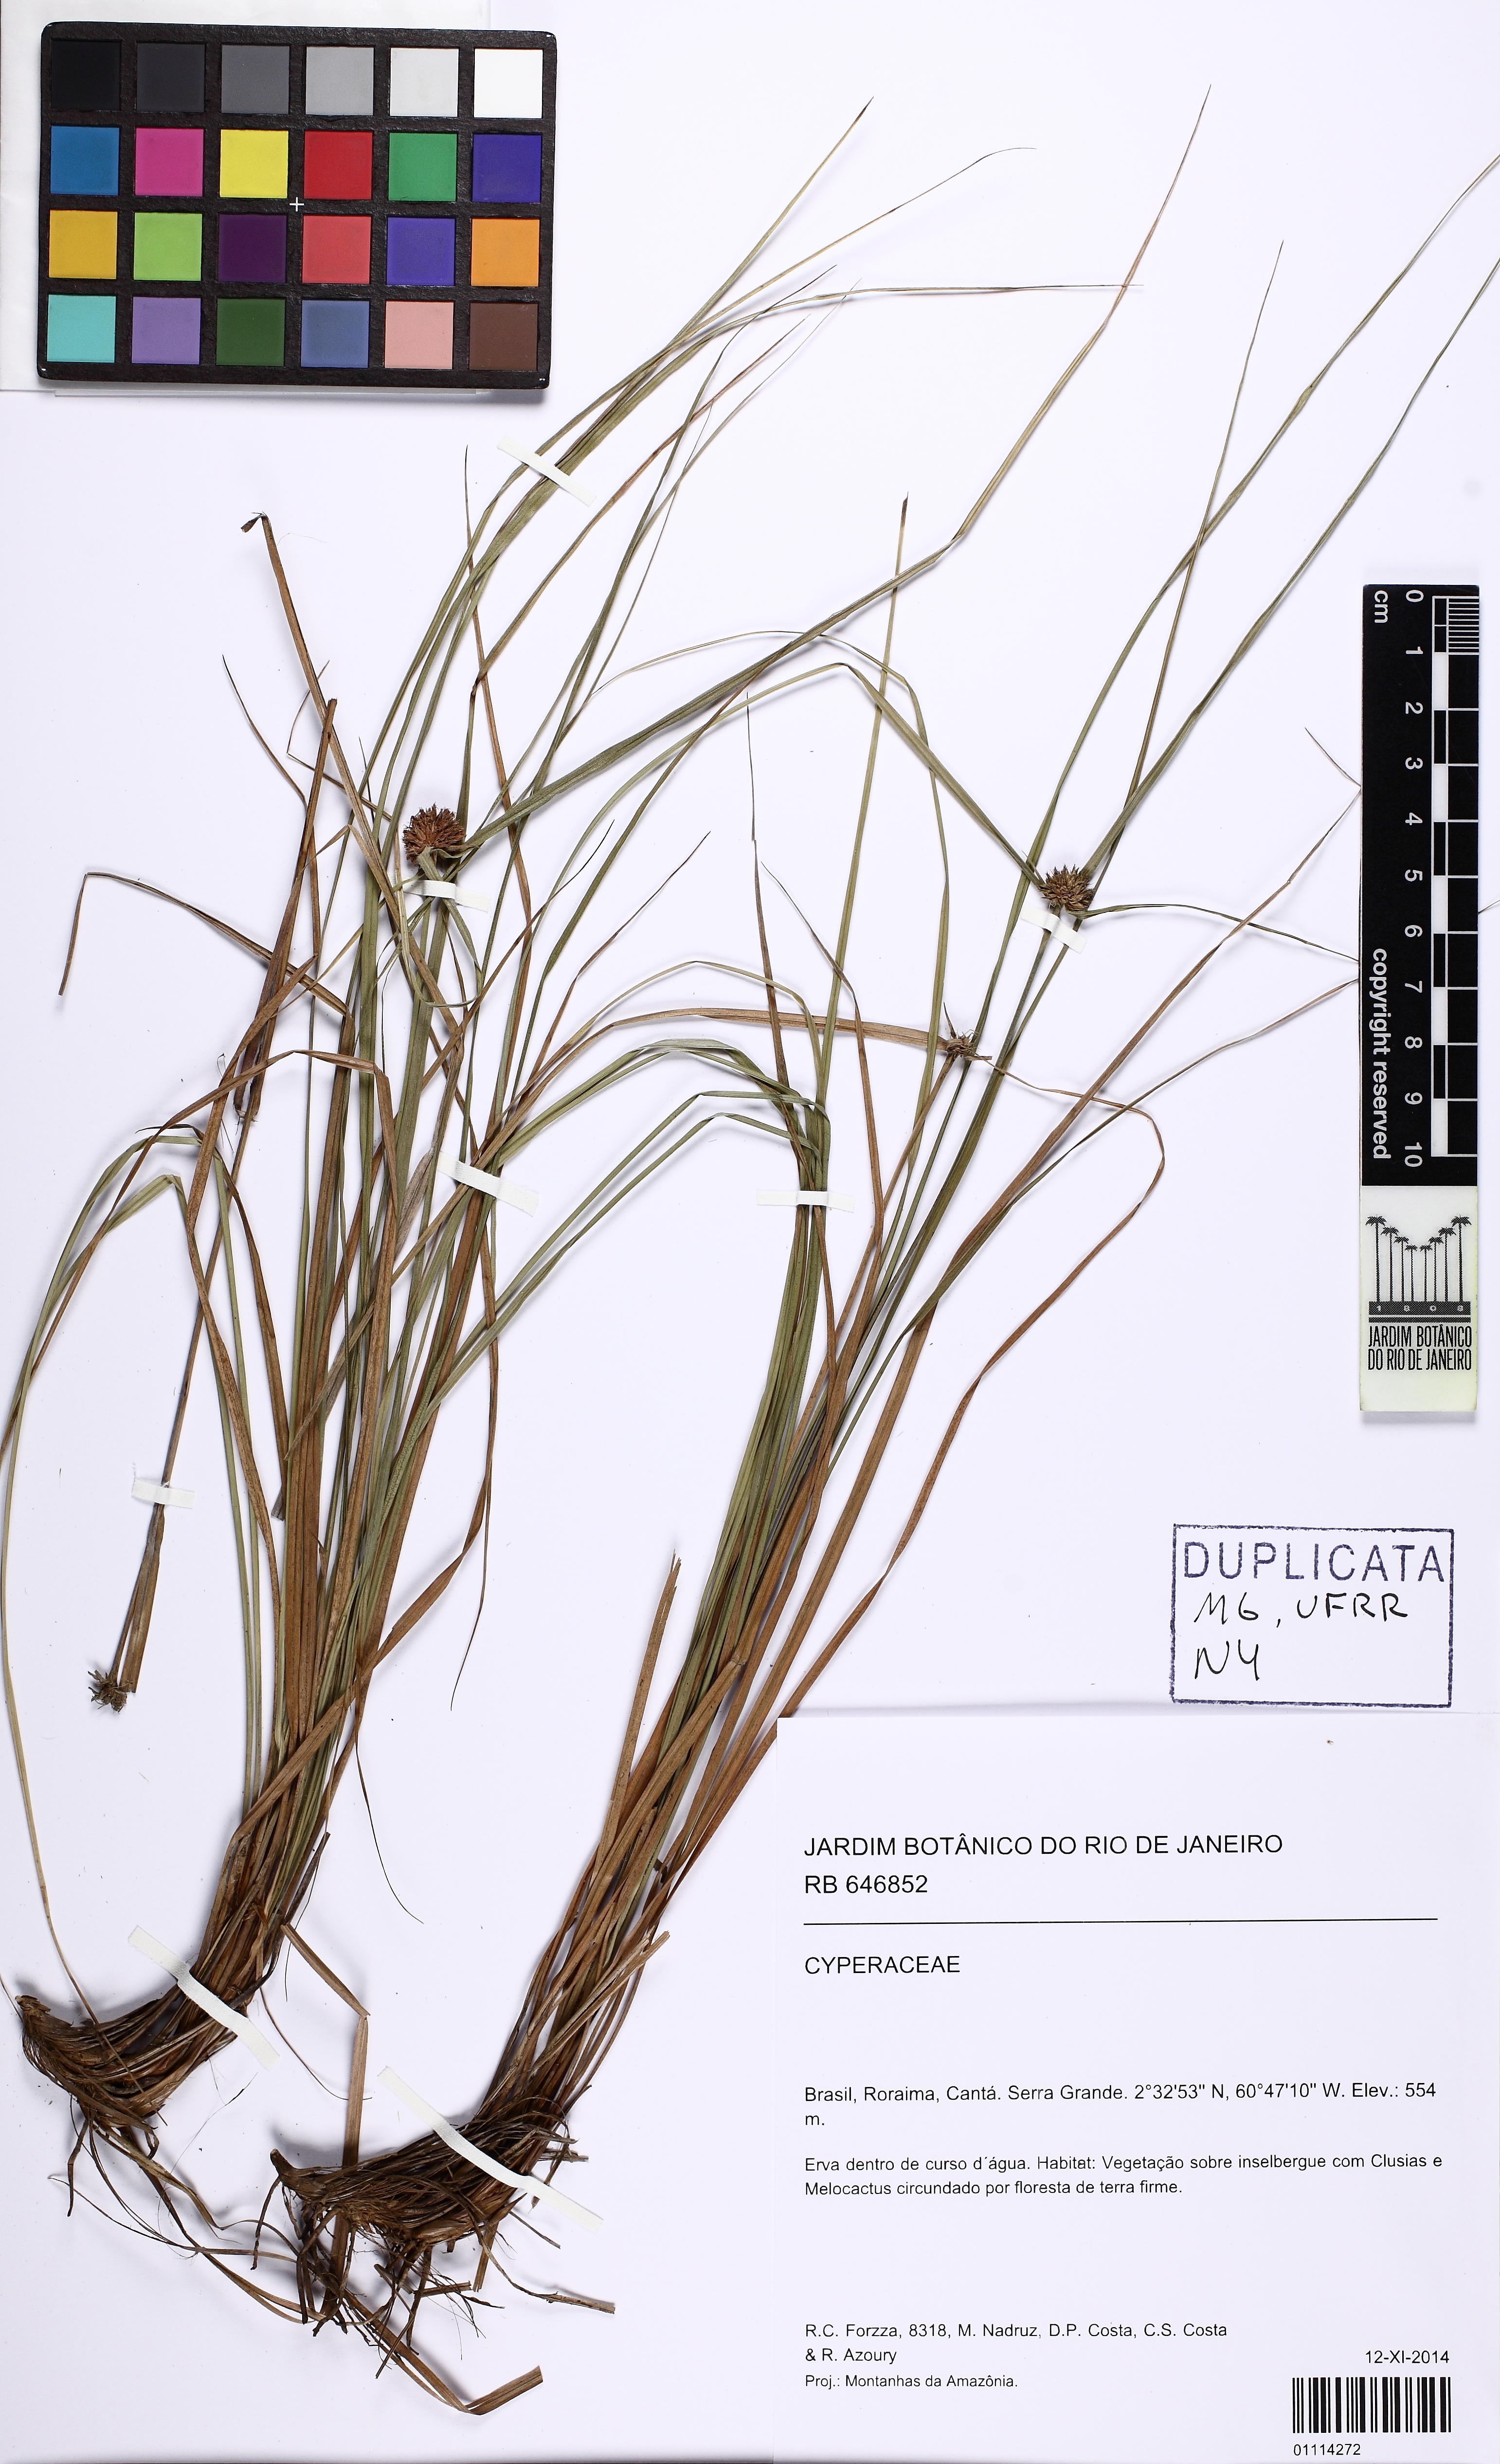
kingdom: Plantae
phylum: Tracheophyta
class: Liliopsida
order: Poales
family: Cyperaceae
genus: Rhynchospora
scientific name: Rhynchospora
